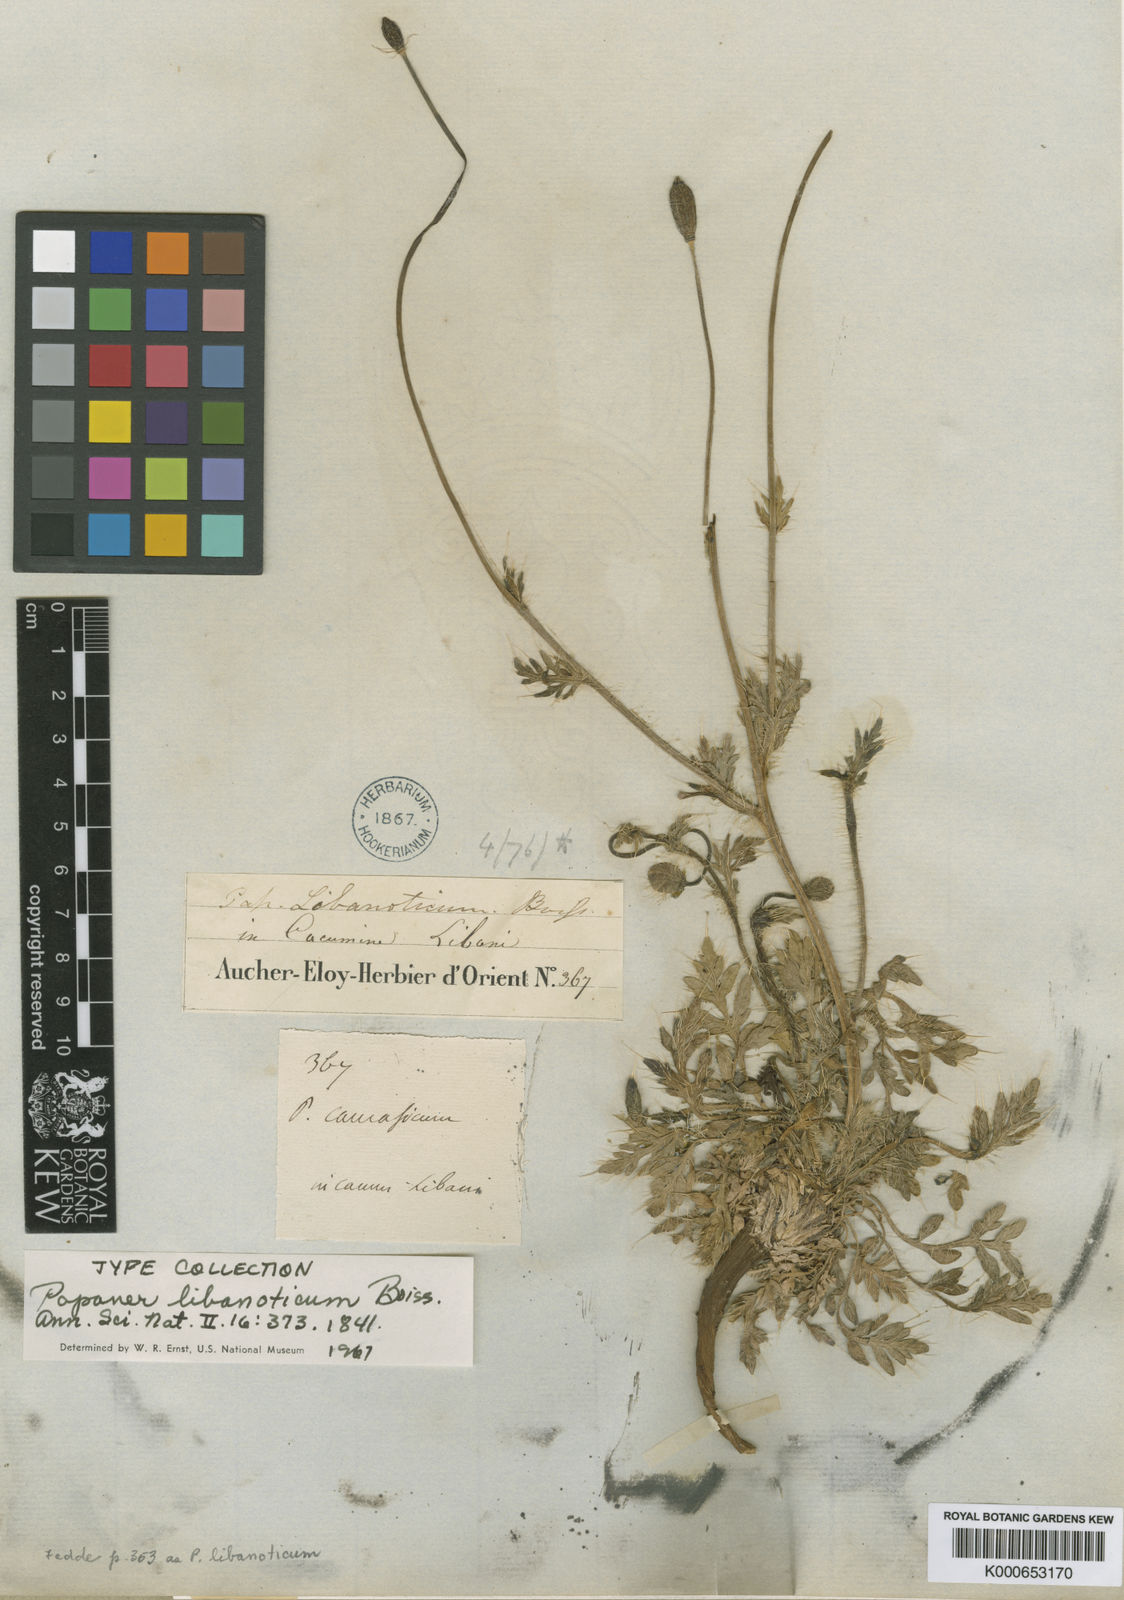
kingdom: Plantae
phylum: Tracheophyta
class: Magnoliopsida
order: Ranunculales
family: Papaveraceae
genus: Papaver
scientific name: Papaver libanoticum
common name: Lebanon poppy
